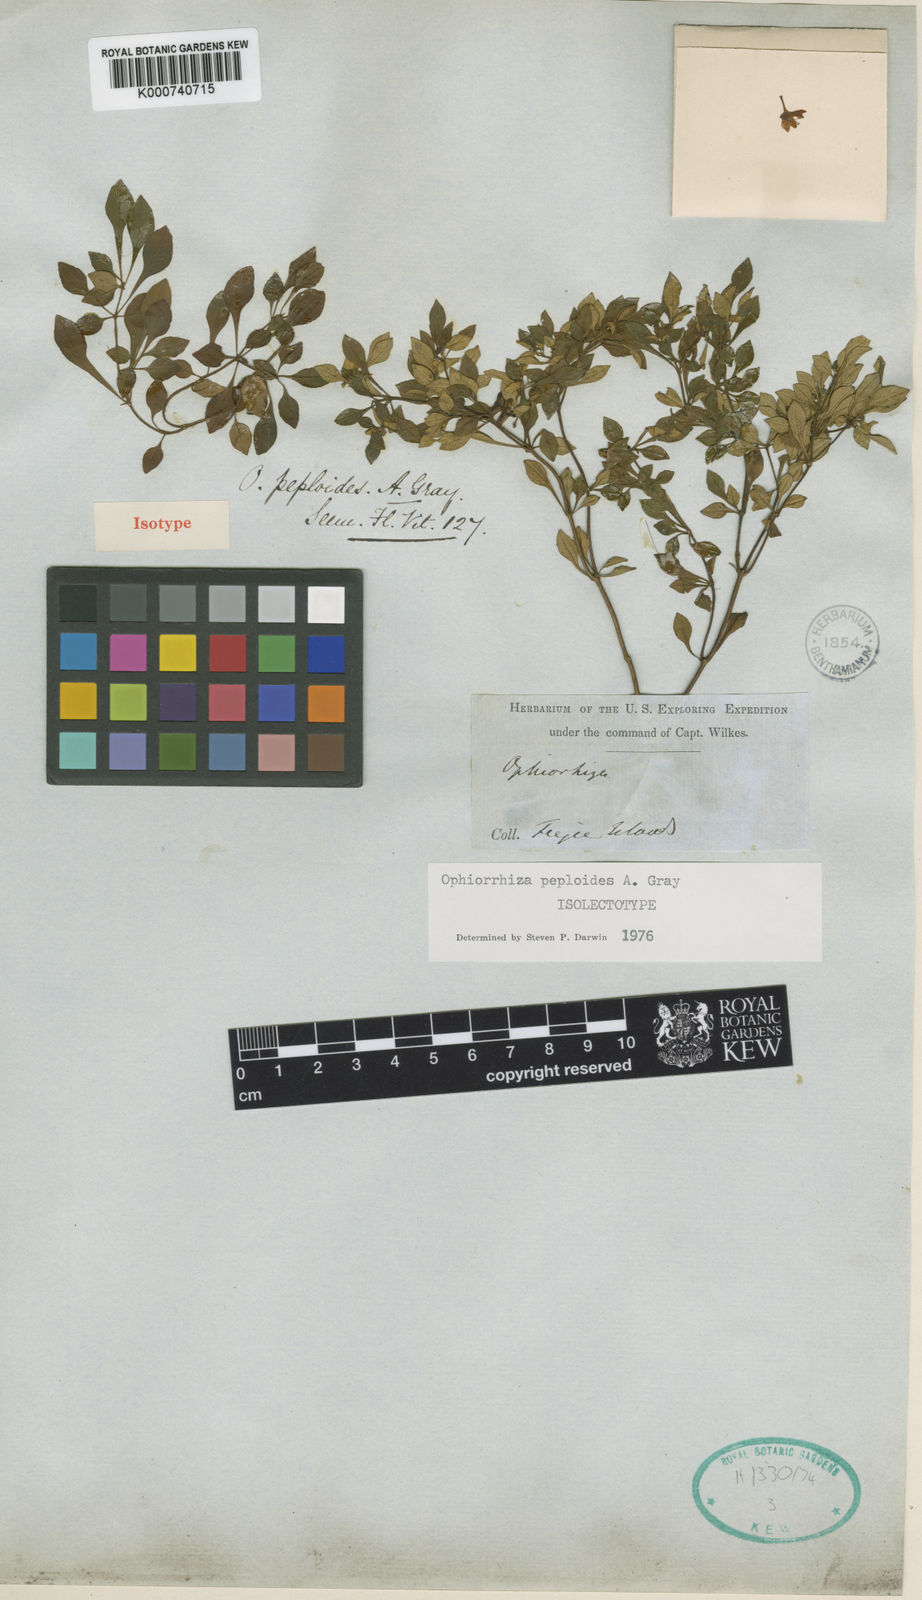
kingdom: Plantae
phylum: Tracheophyta
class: Magnoliopsida
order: Gentianales
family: Rubiaceae
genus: Ophiorrhiza
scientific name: Ophiorrhiza peploides
